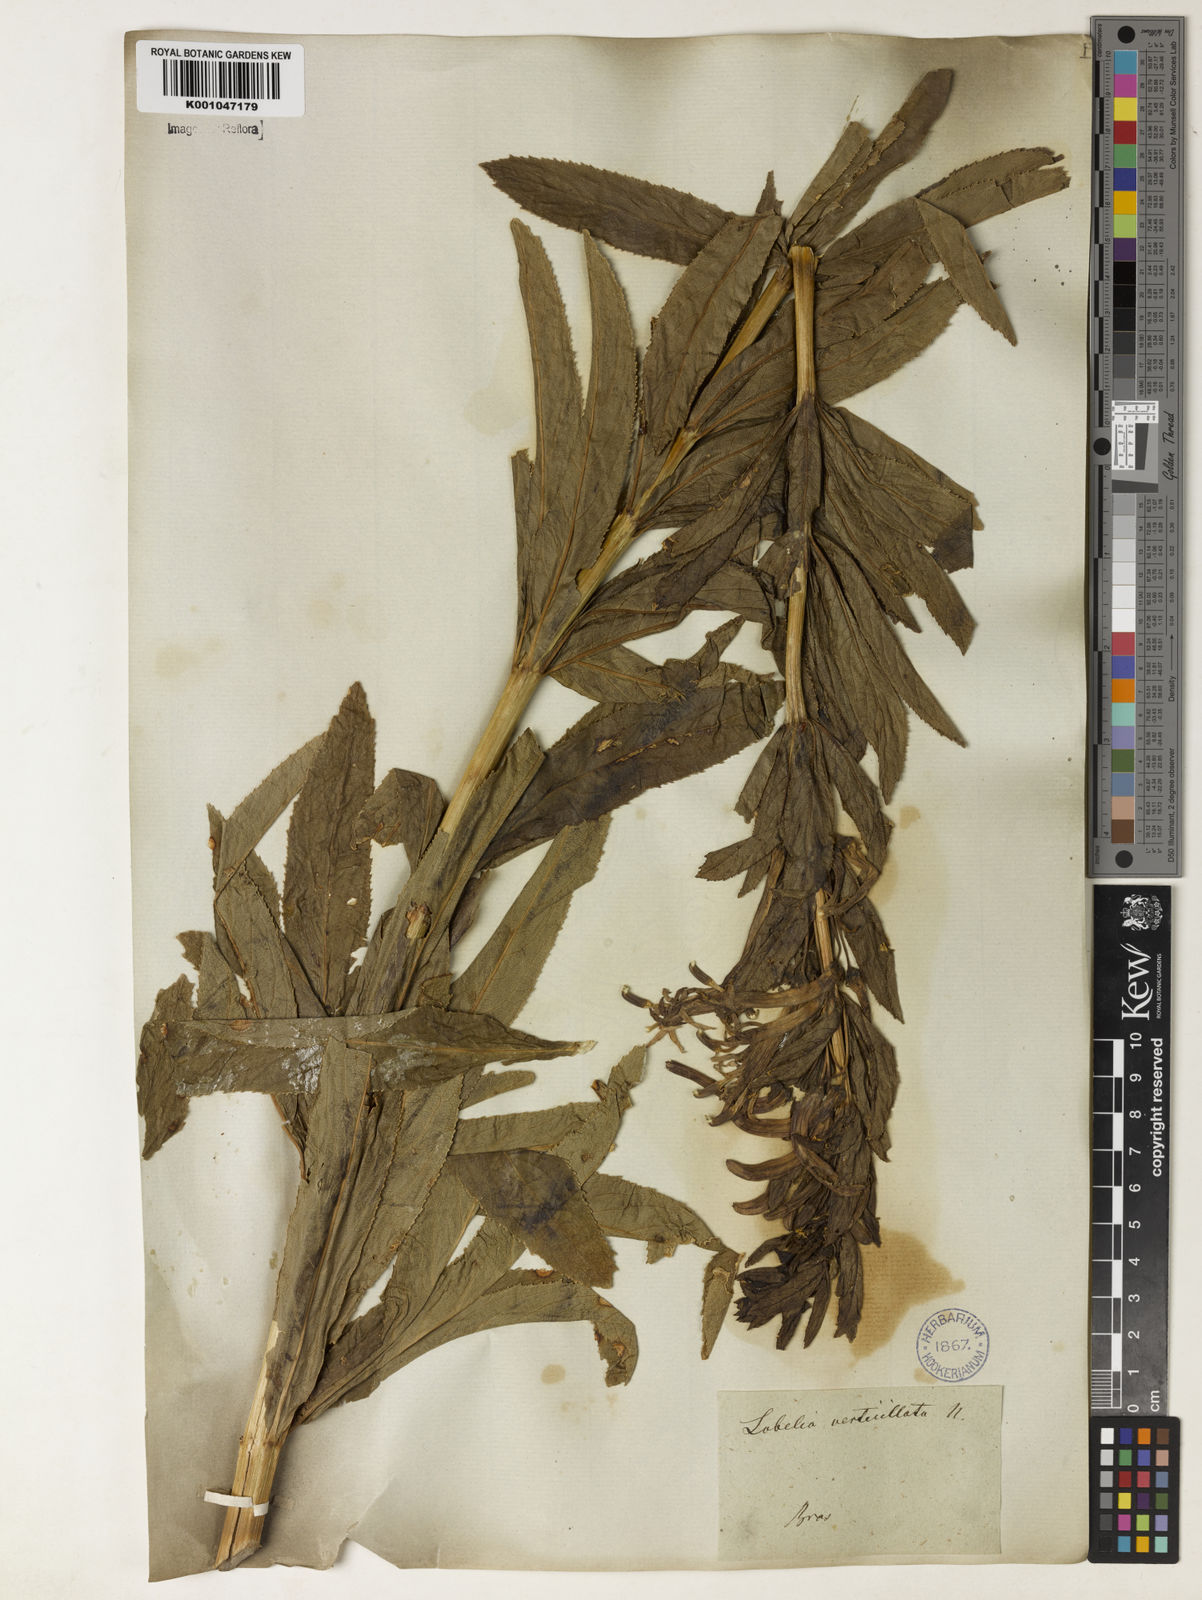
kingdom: Plantae
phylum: Tracheophyta
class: Magnoliopsida
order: Asterales
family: Campanulaceae
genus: Siphocampylus
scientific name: Siphocampylus verticillatus
